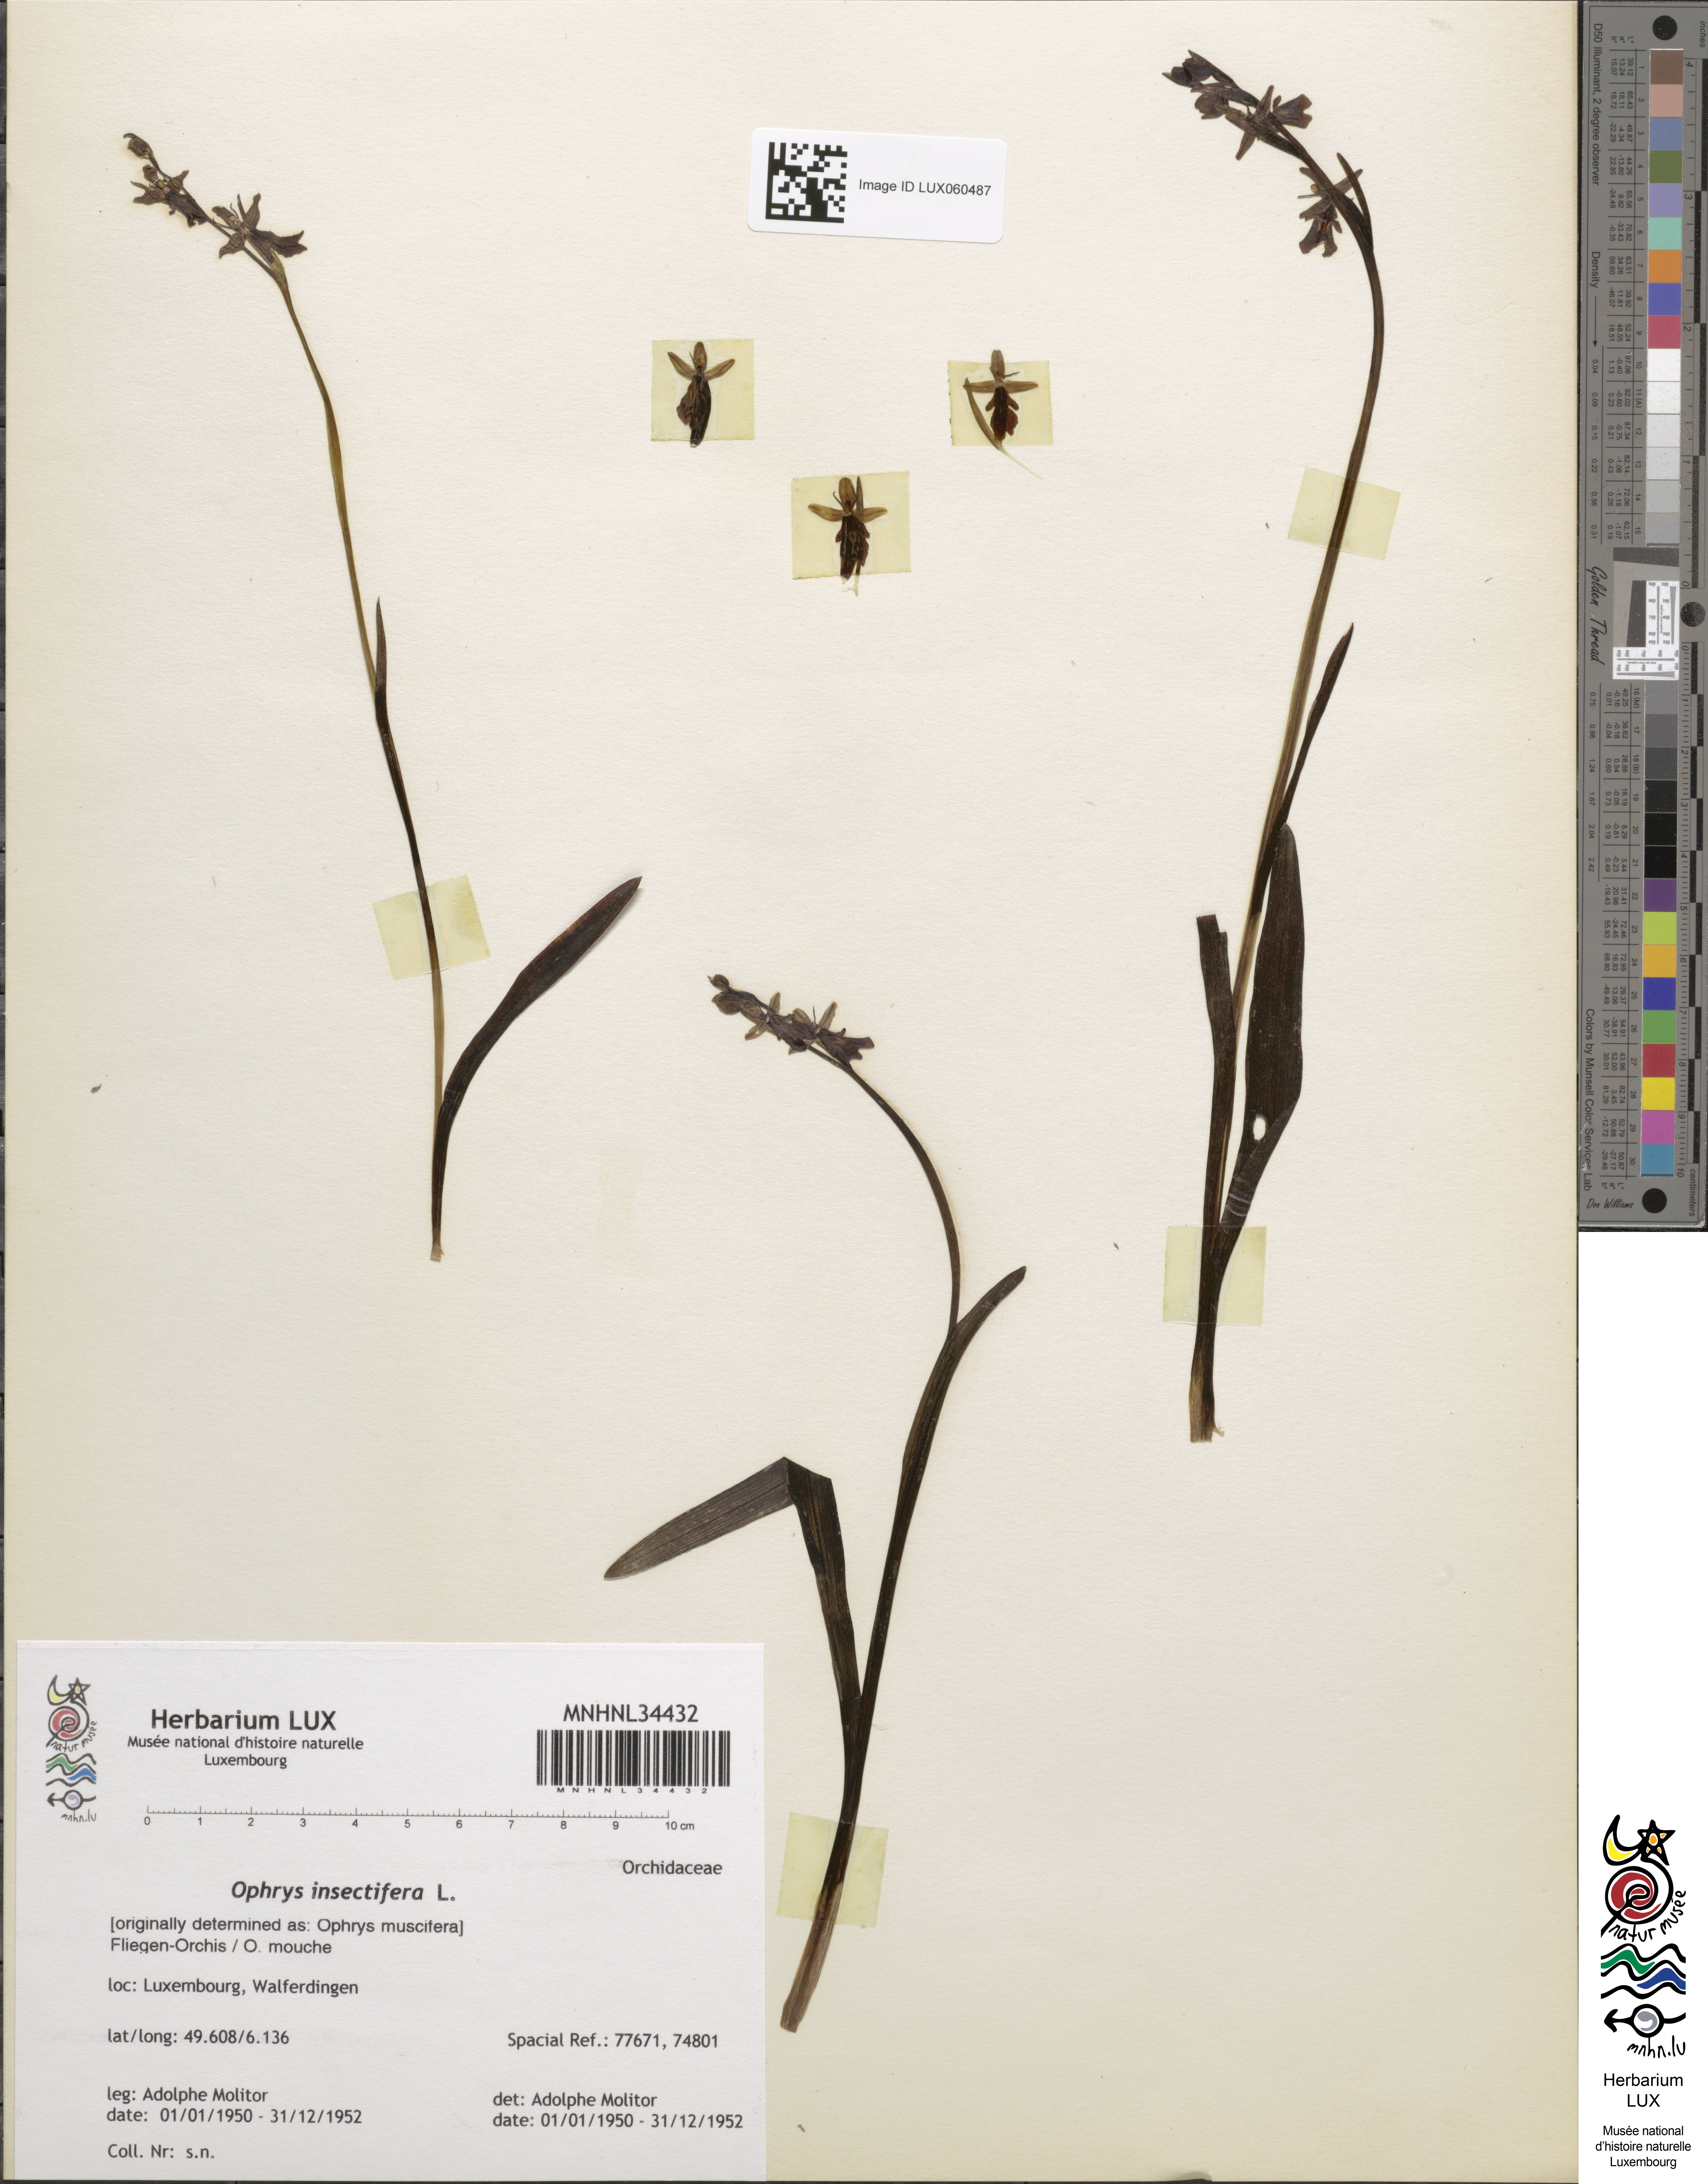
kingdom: Plantae
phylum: Tracheophyta
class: Liliopsida
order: Asparagales
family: Orchidaceae
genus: Ophrys
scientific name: Ophrys insectifera
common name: Fly orchid
